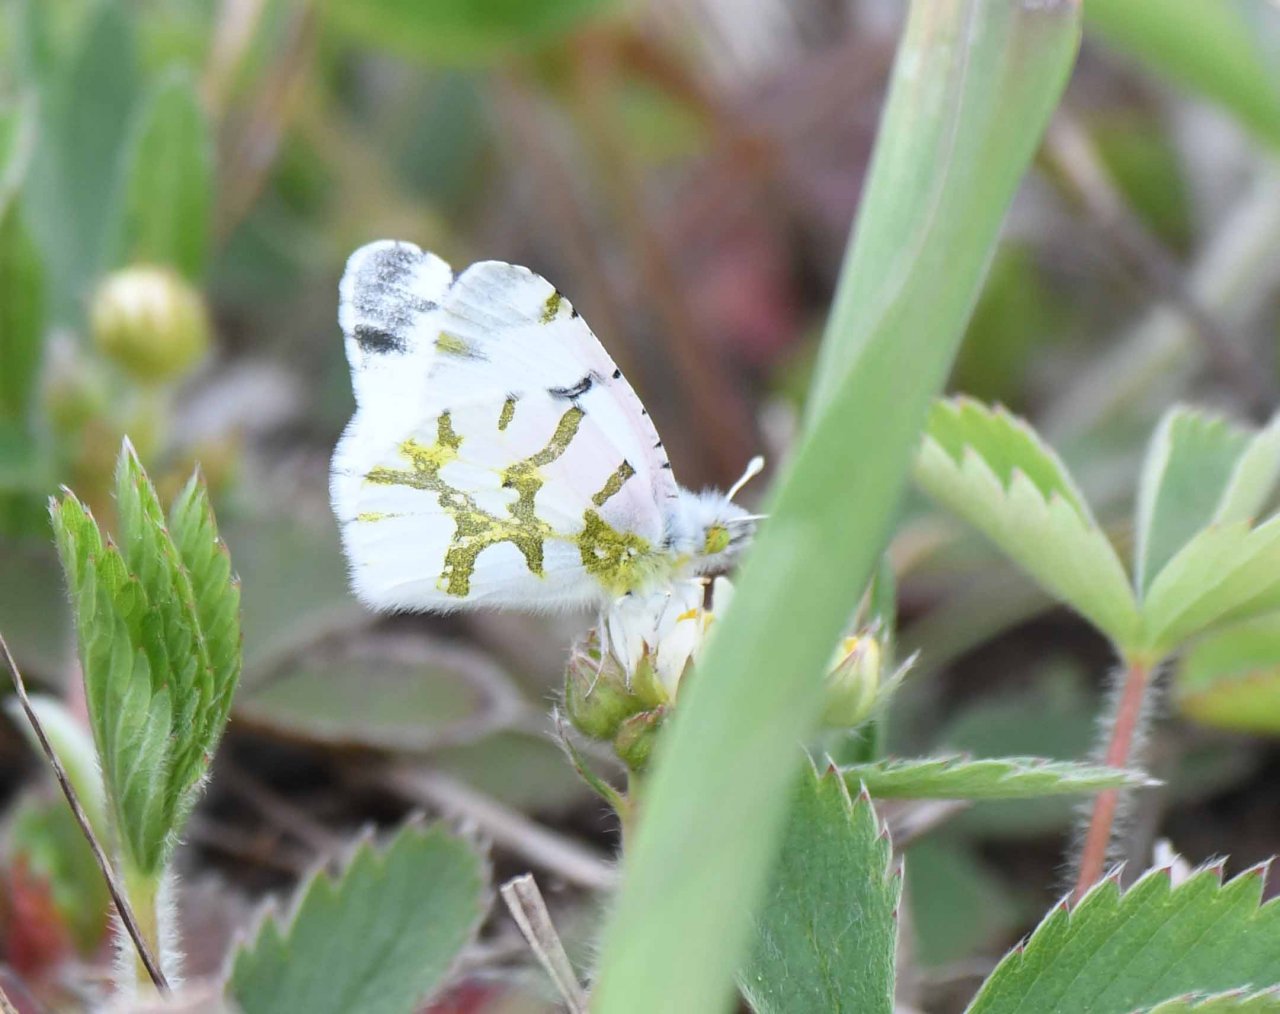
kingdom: Animalia
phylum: Arthropoda
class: Insecta
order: Lepidoptera
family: Pieridae
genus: Euchloe
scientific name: Euchloe olympia
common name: Olympia Marble
